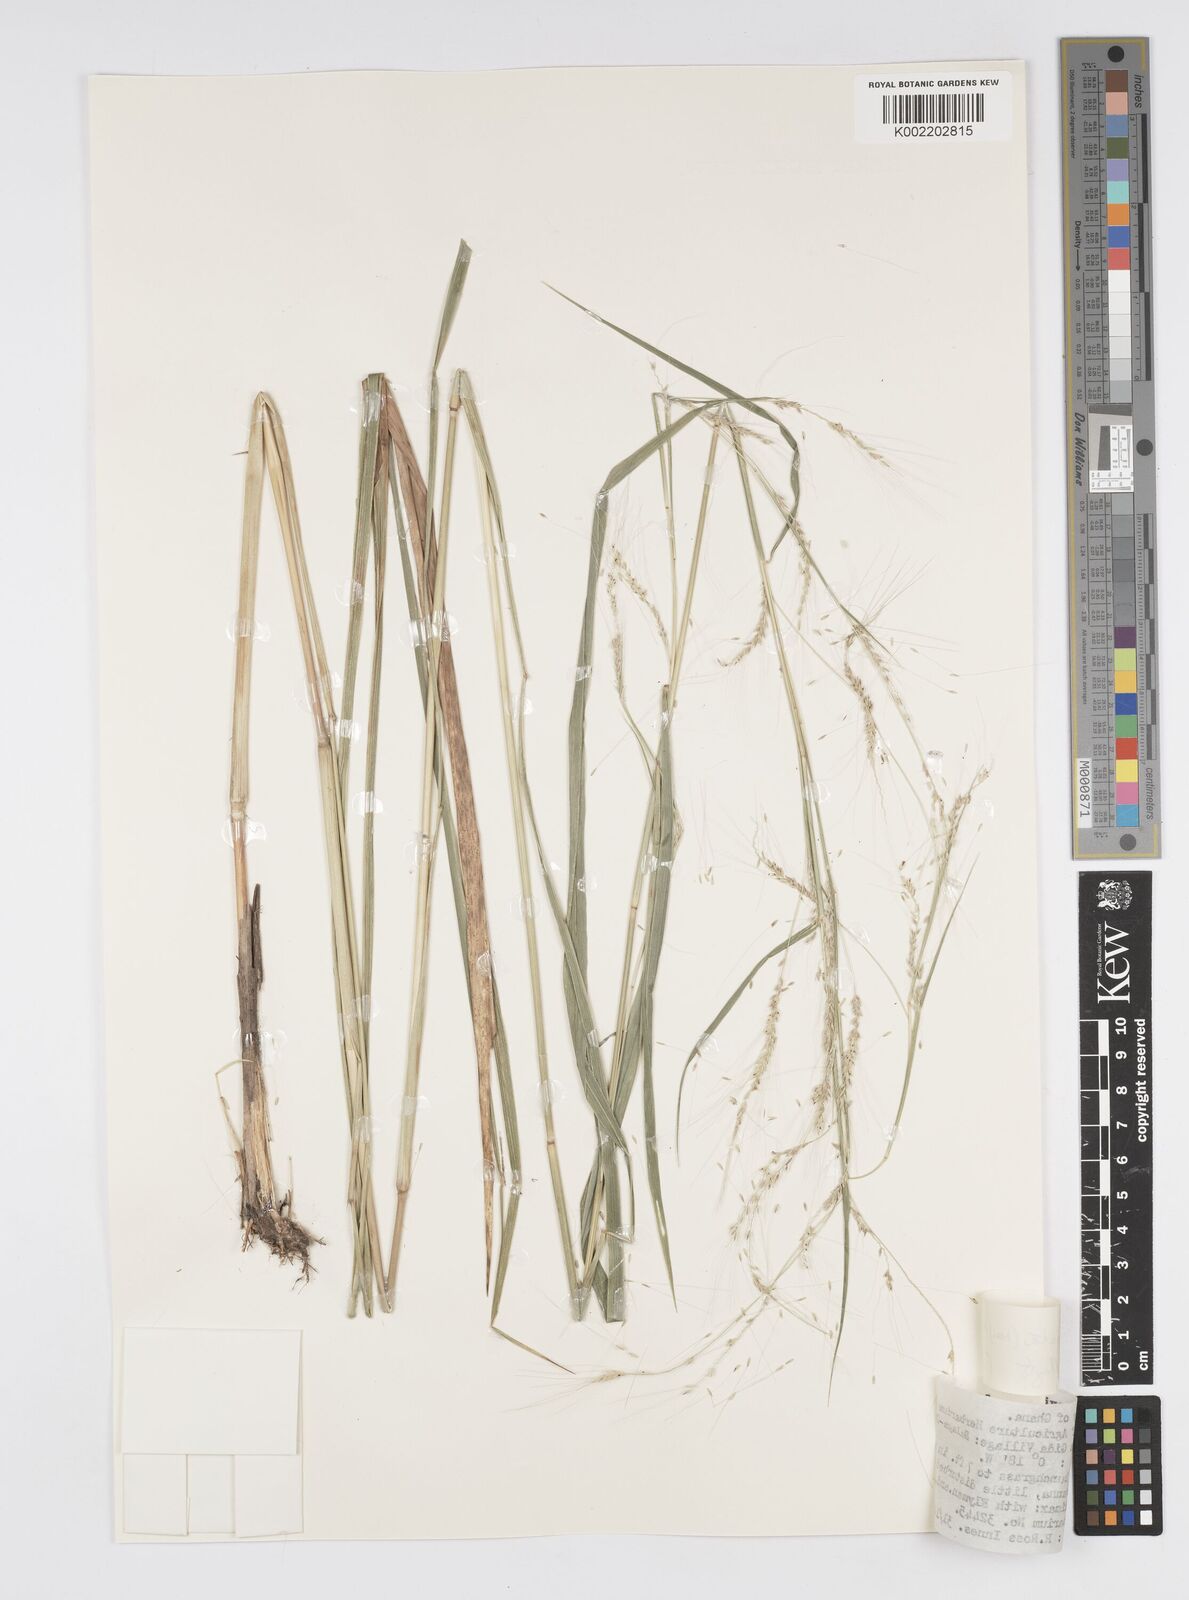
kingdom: Plantae
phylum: Tracheophyta
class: Liliopsida
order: Poales
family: Poaceae
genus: Cenchrus
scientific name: Cenchrus unisetus
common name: Natal grass
